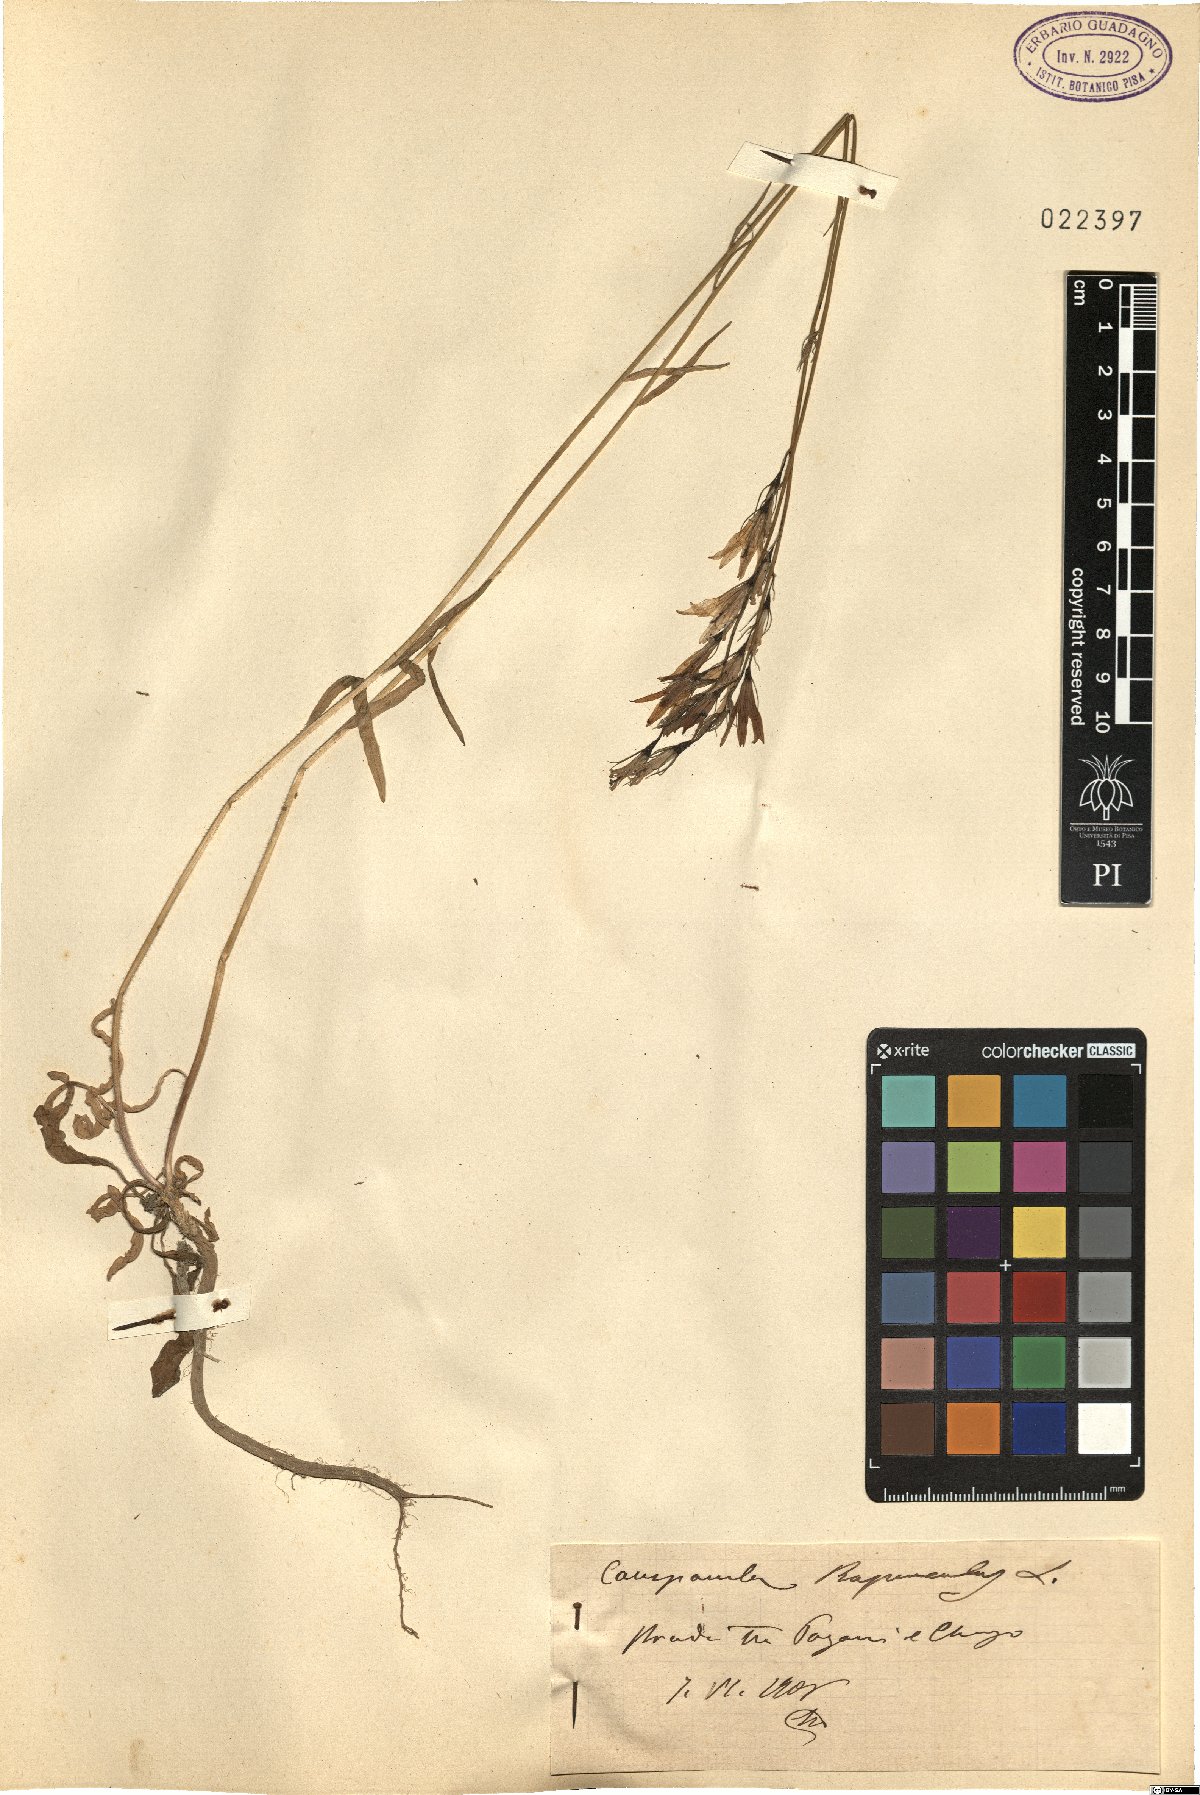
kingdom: Plantae
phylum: Tracheophyta
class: Magnoliopsida
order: Asterales
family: Campanulaceae
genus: Campanula
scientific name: Campanula rapunculus
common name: Rampion bellflower
